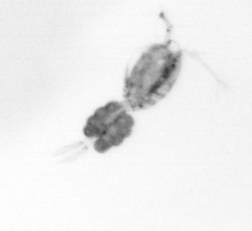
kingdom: Animalia
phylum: Arthropoda
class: Copepoda
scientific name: Copepoda
